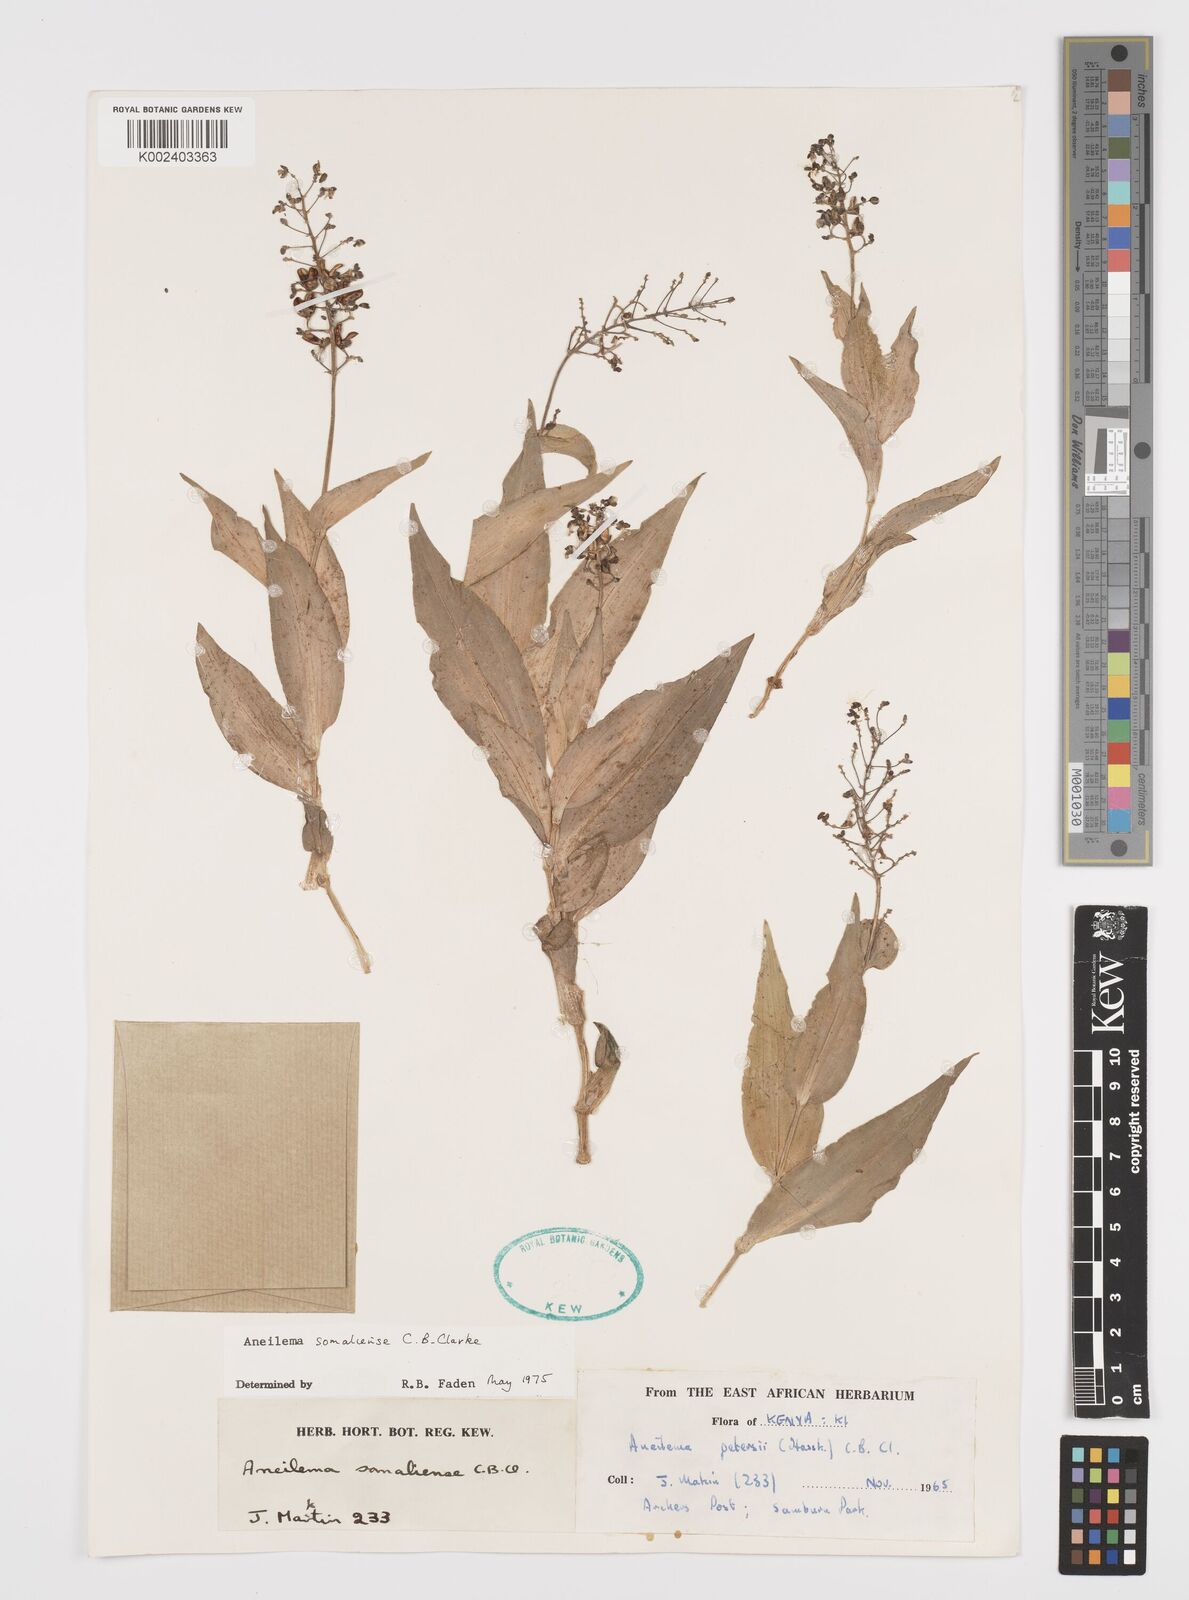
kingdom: Plantae
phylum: Tracheophyta
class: Liliopsida
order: Commelinales
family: Commelinaceae
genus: Aneilema
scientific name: Aneilema somaliense
